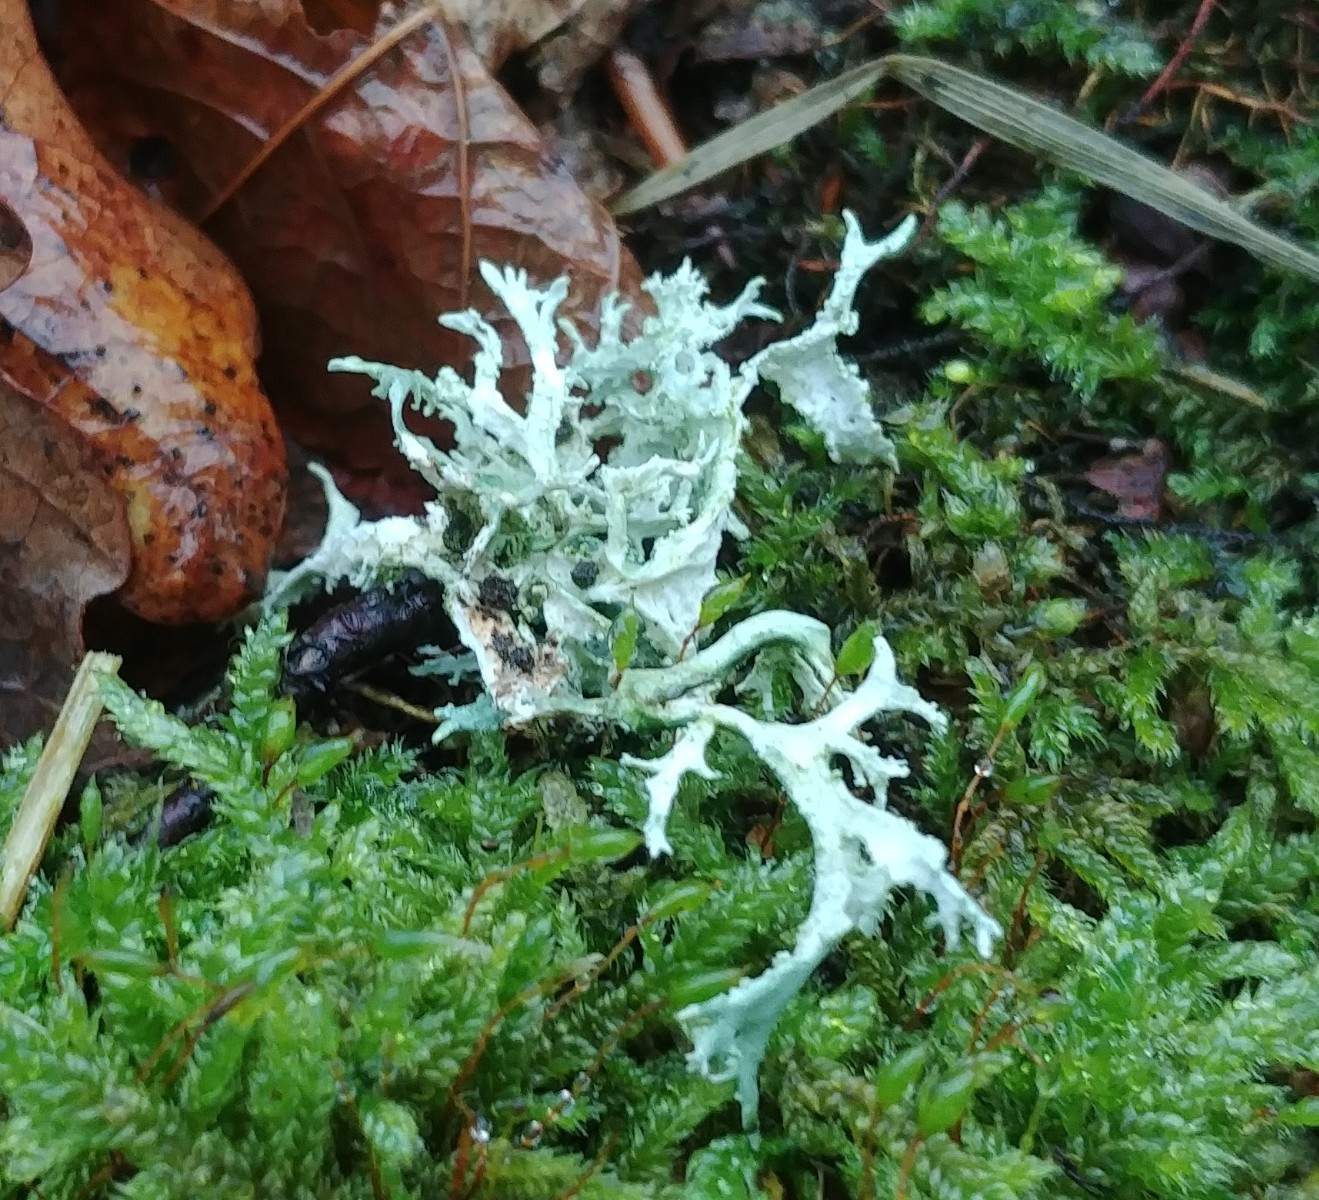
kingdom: Fungi
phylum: Ascomycota
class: Lecanoromycetes
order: Lecanorales
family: Parmeliaceae
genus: Evernia
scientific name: Evernia prunastri
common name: almindelig slåenlav
